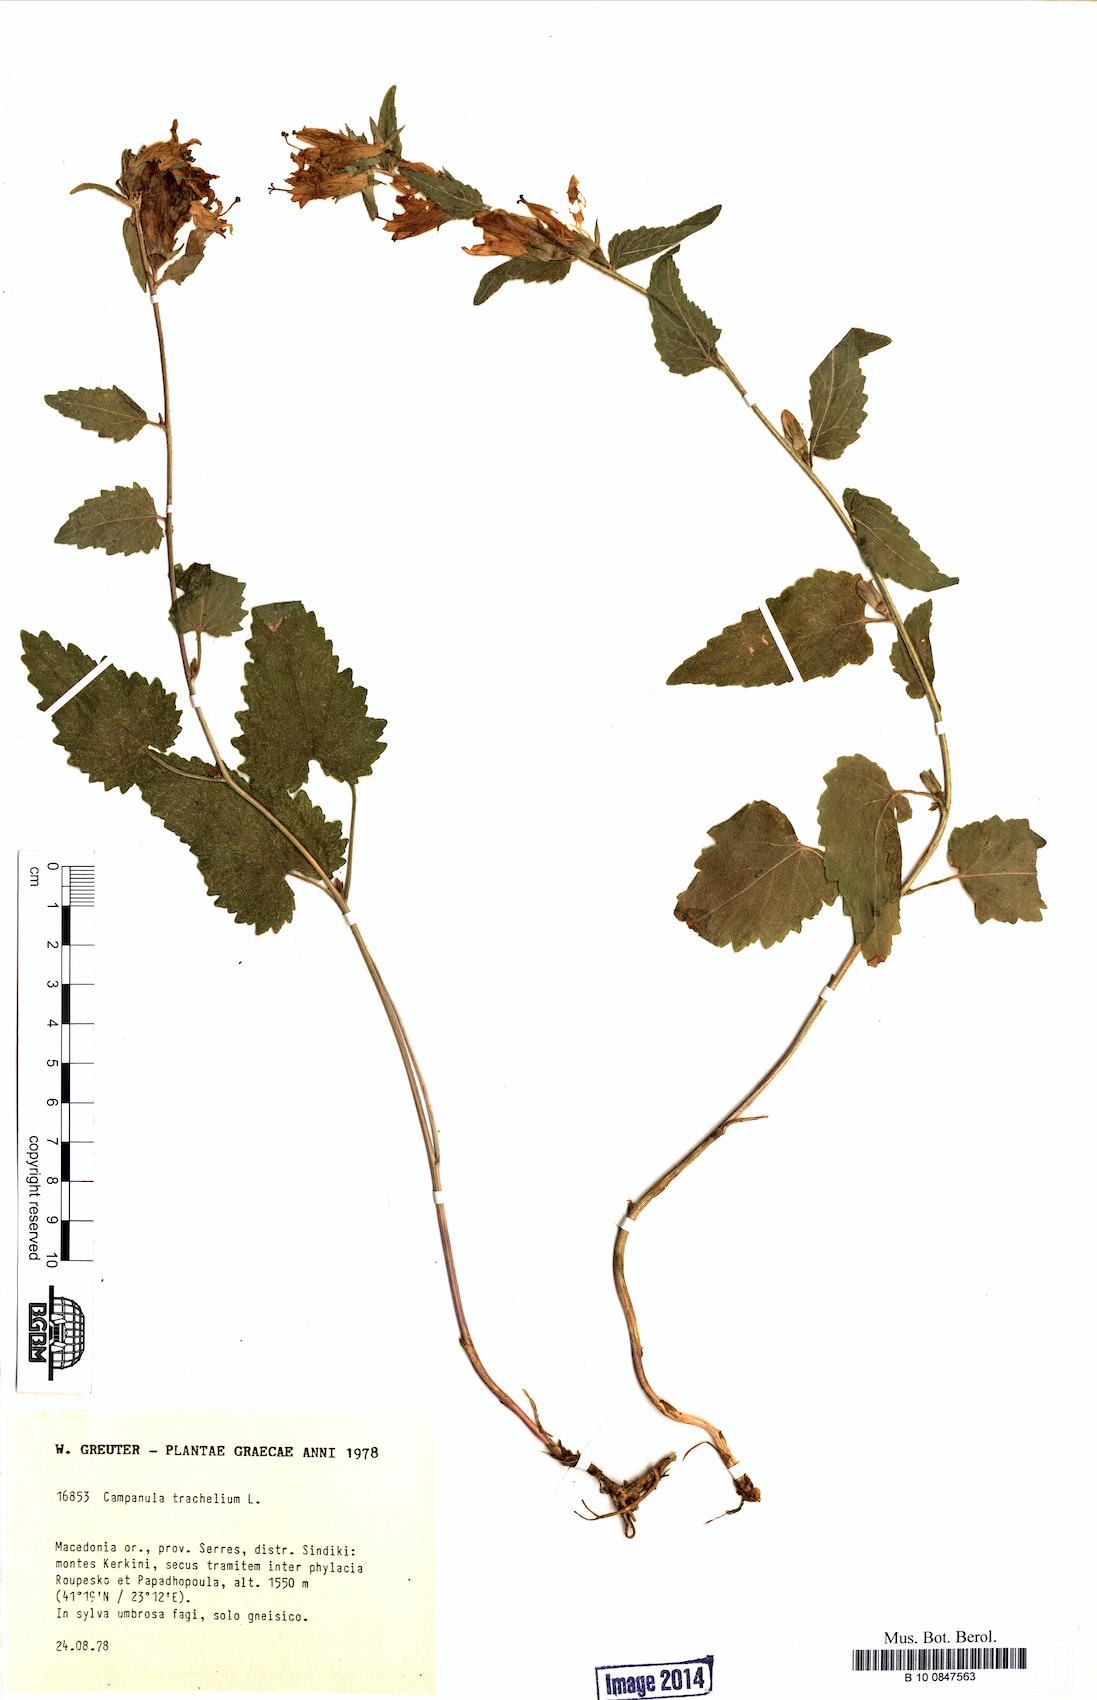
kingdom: Plantae
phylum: Tracheophyta
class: Magnoliopsida
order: Asterales
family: Campanulaceae
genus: Campanula
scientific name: Campanula trachelium
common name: Nettle-leaved bellflower
